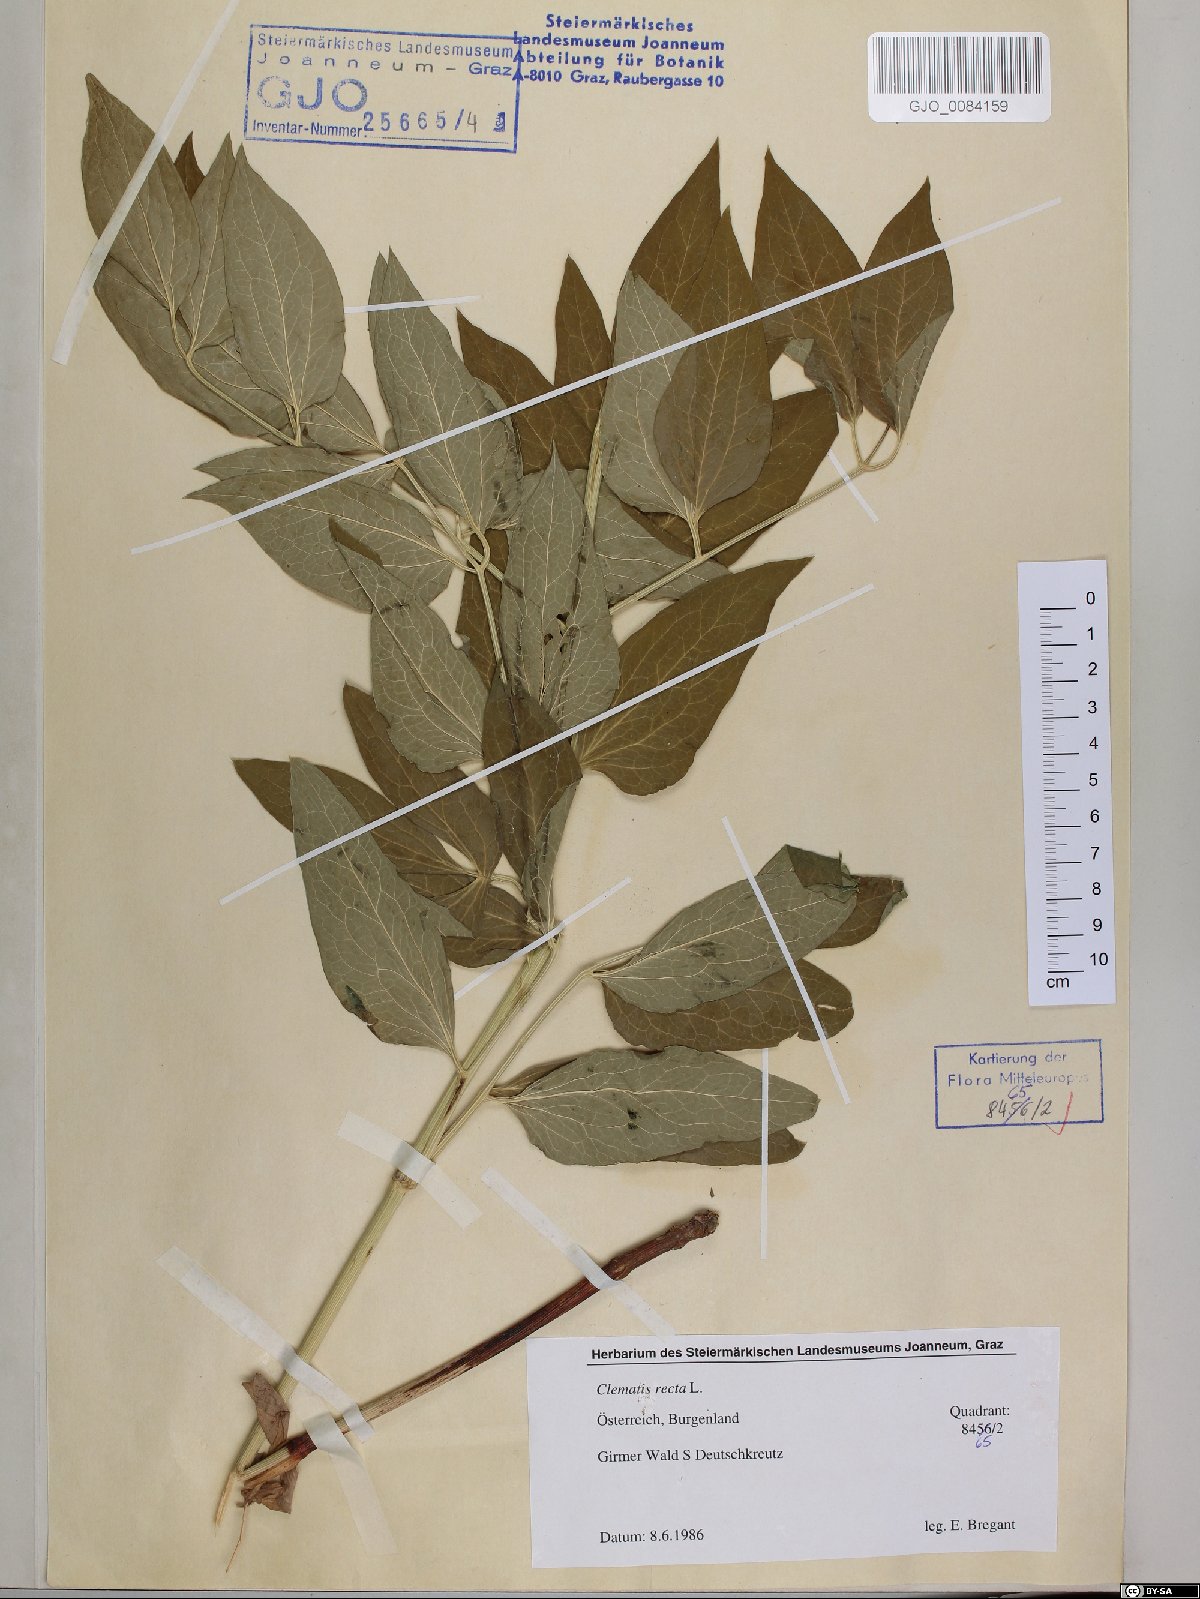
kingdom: Plantae
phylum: Tracheophyta
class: Magnoliopsida
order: Ranunculales
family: Ranunculaceae
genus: Clematis
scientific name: Clematis recta
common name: Ground clematis
